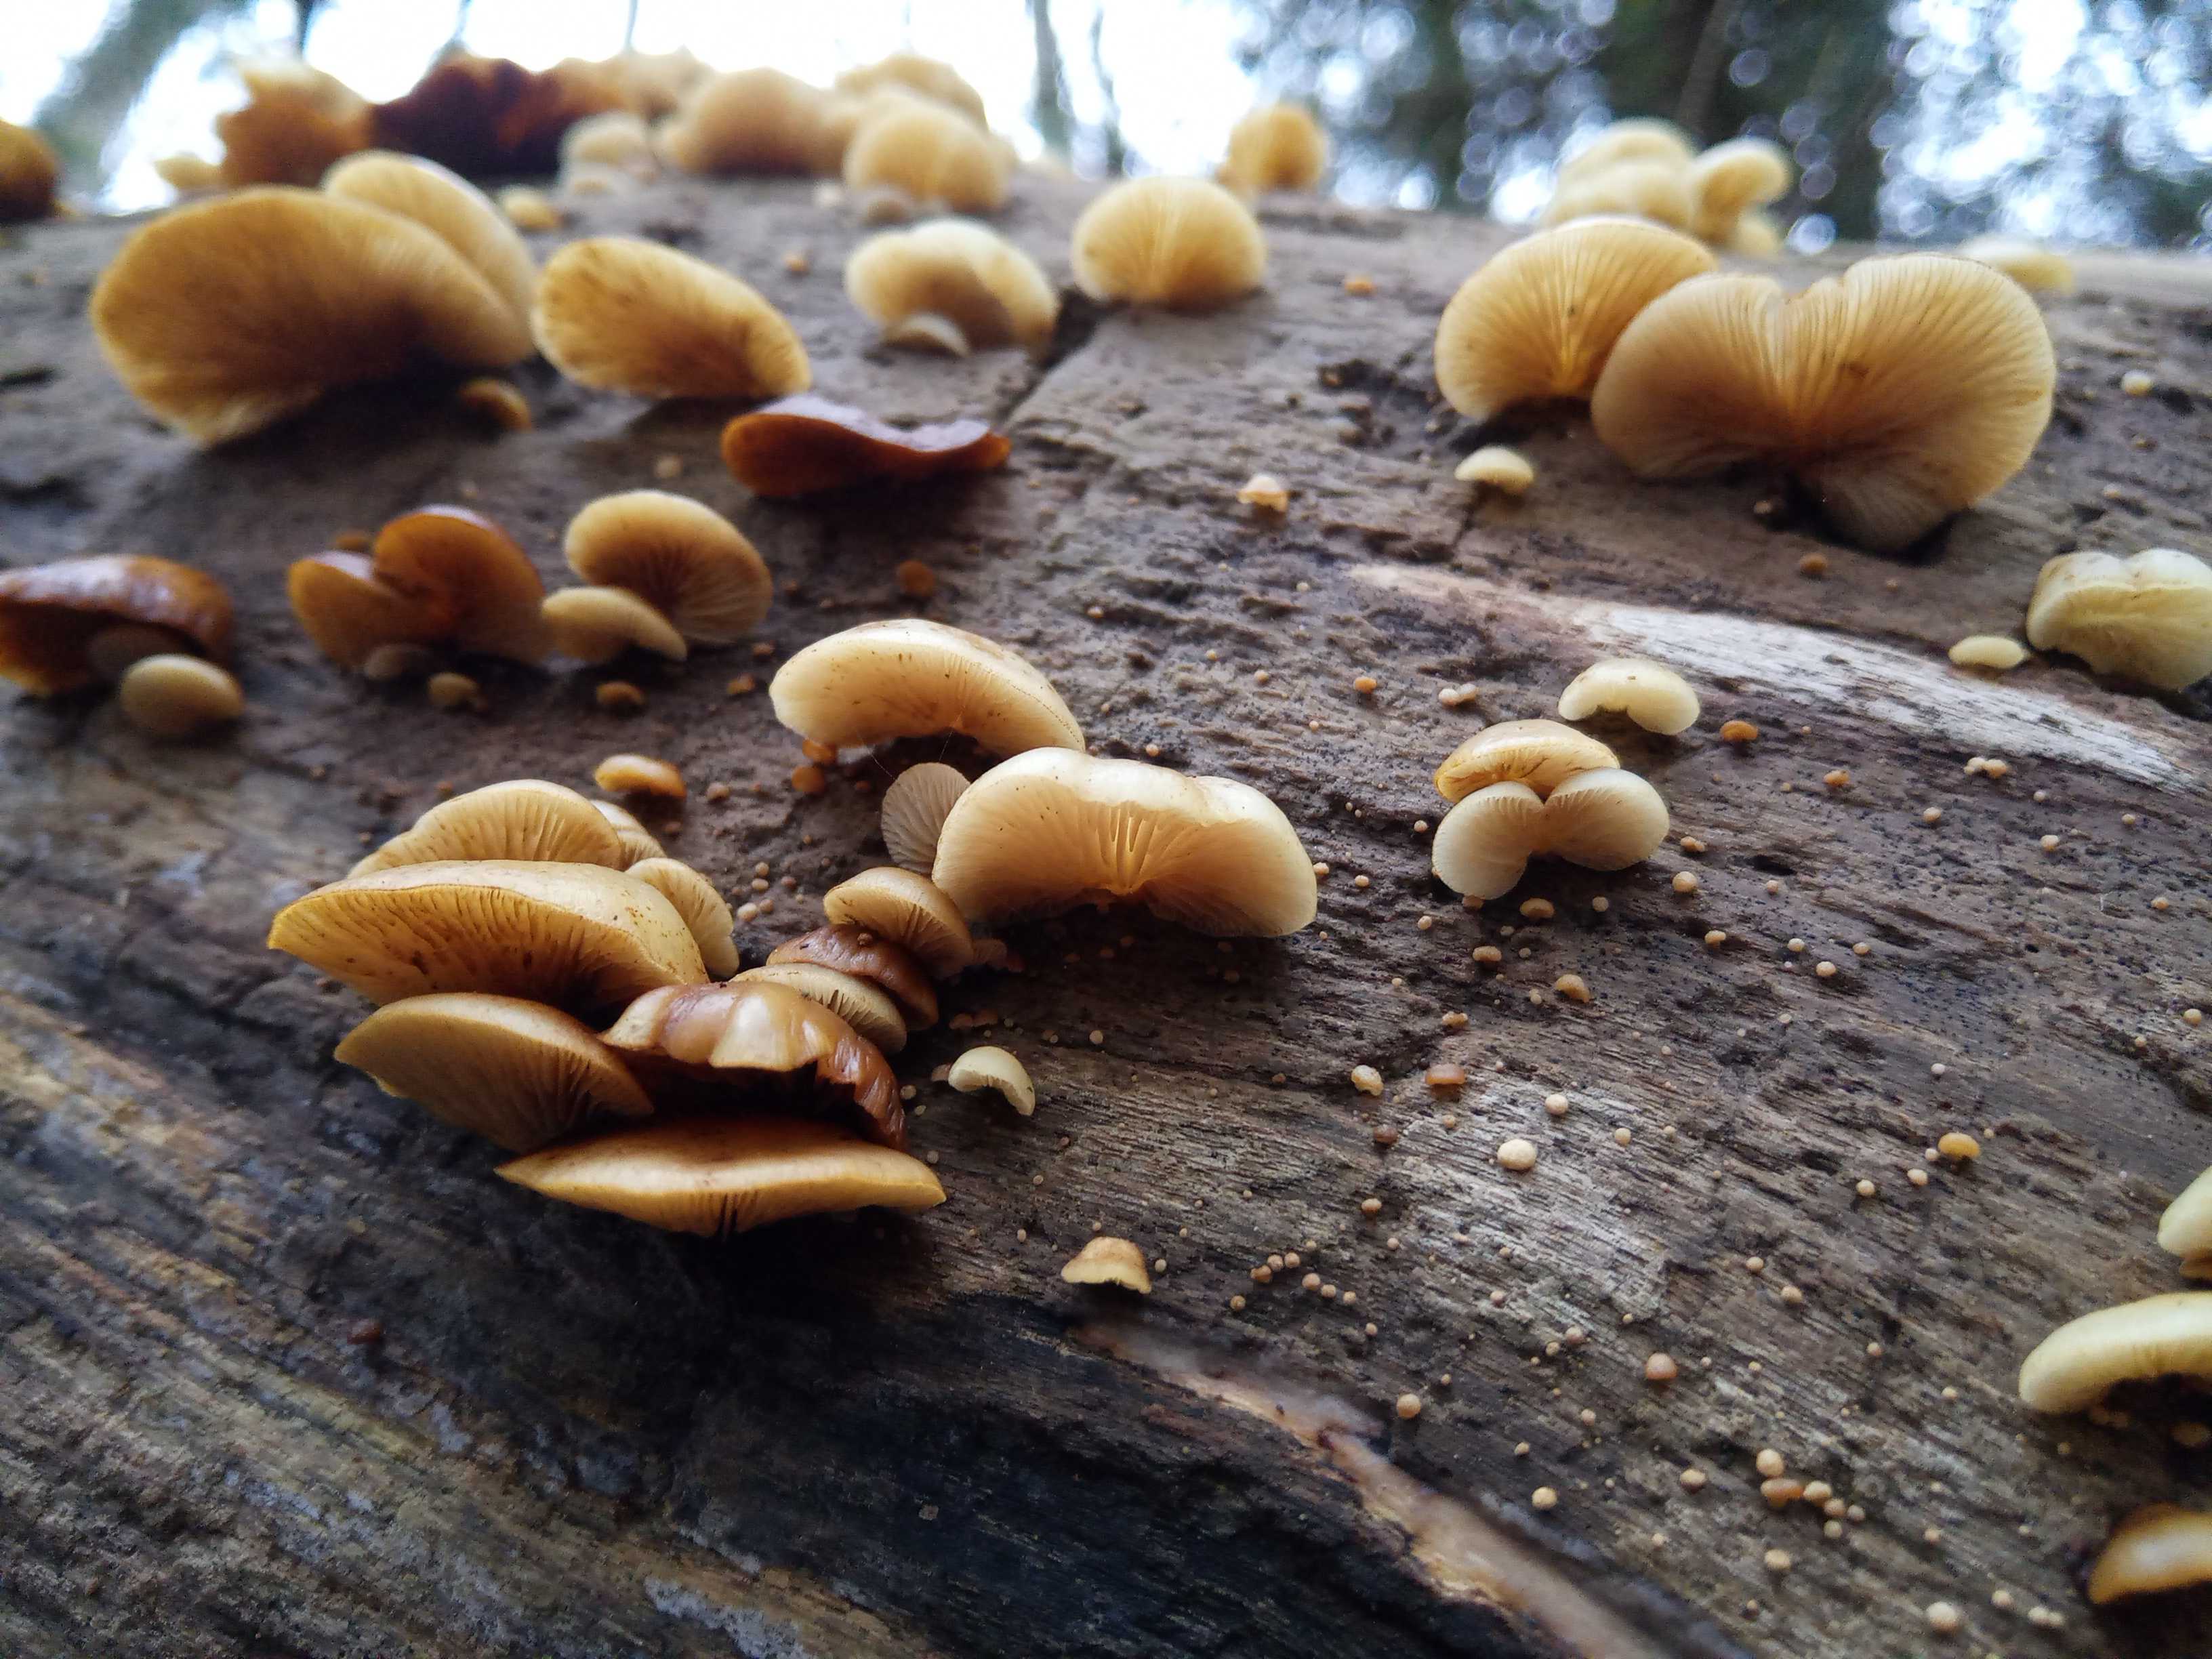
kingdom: Fungi
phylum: Basidiomycota
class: Agaricomycetes
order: Agaricales
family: Crepidotaceae
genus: Crepidotus
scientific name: Crepidotus mollis
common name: blød muslingesvamp
